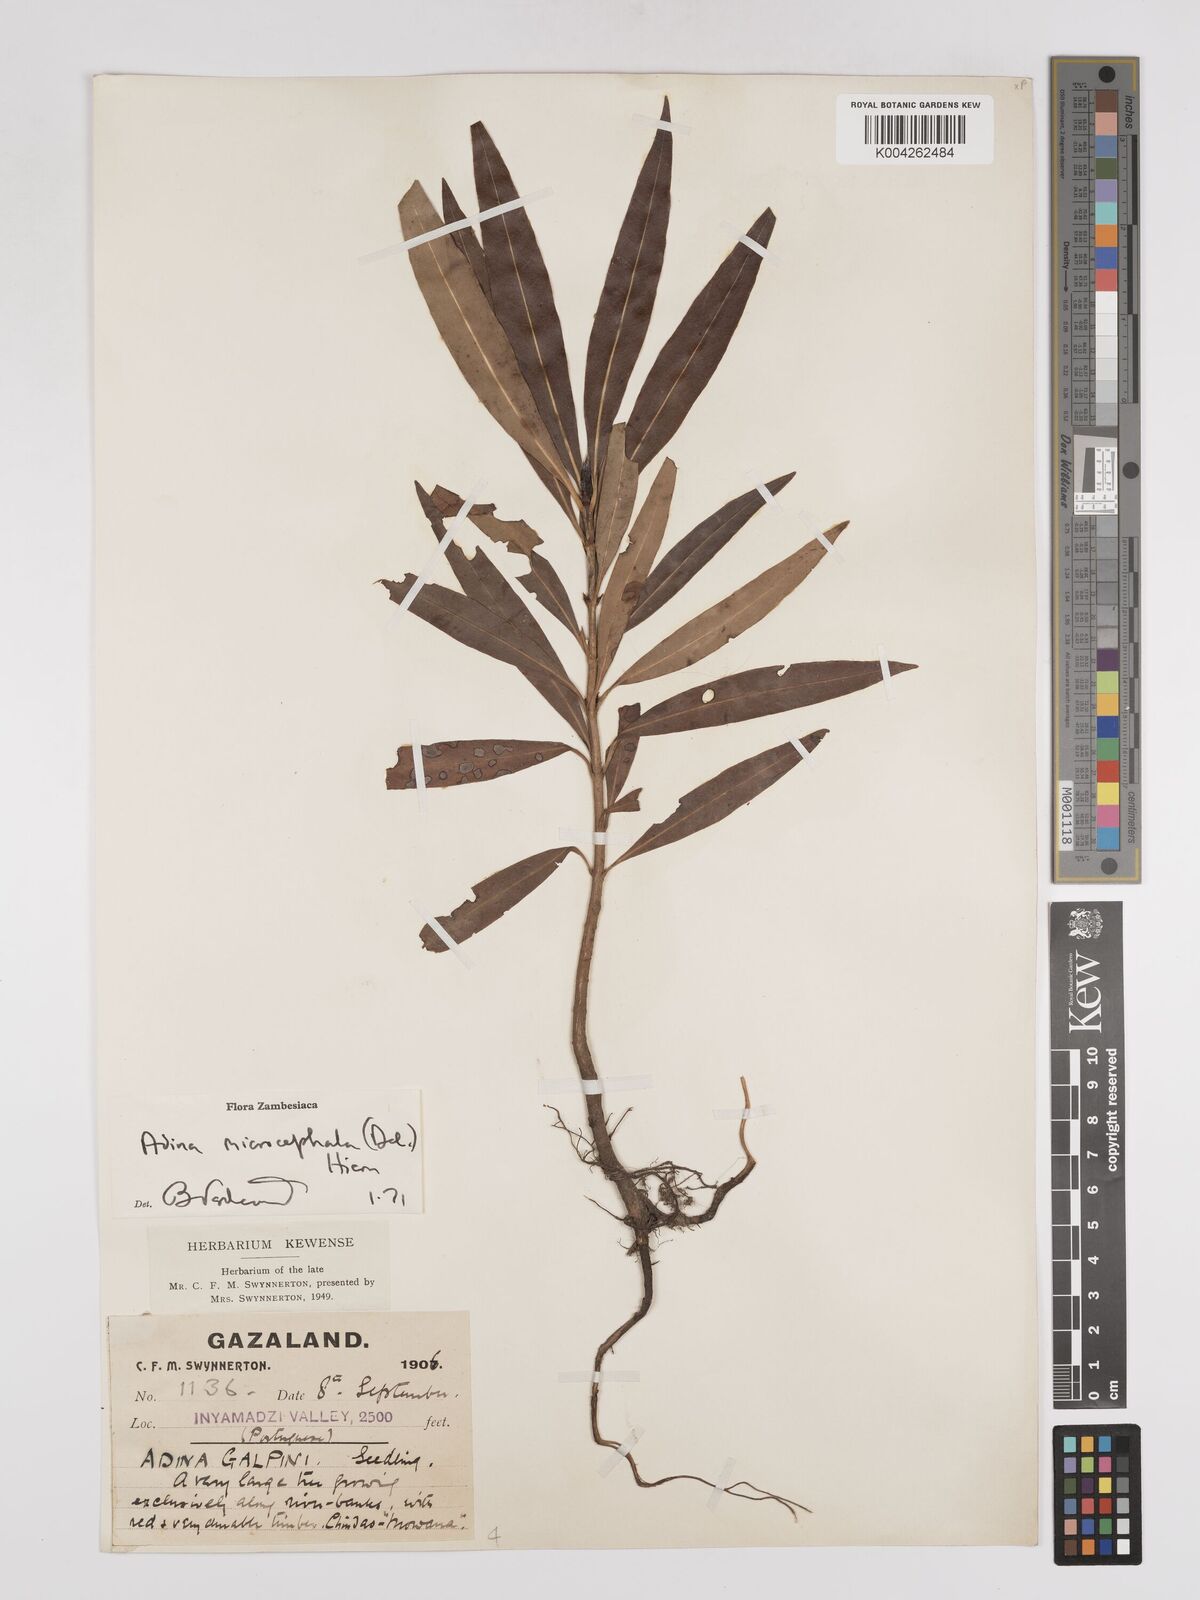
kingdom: Plantae
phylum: Tracheophyta
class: Magnoliopsida
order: Gentianales
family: Rubiaceae
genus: Breonadia
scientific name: Breonadia salicina
